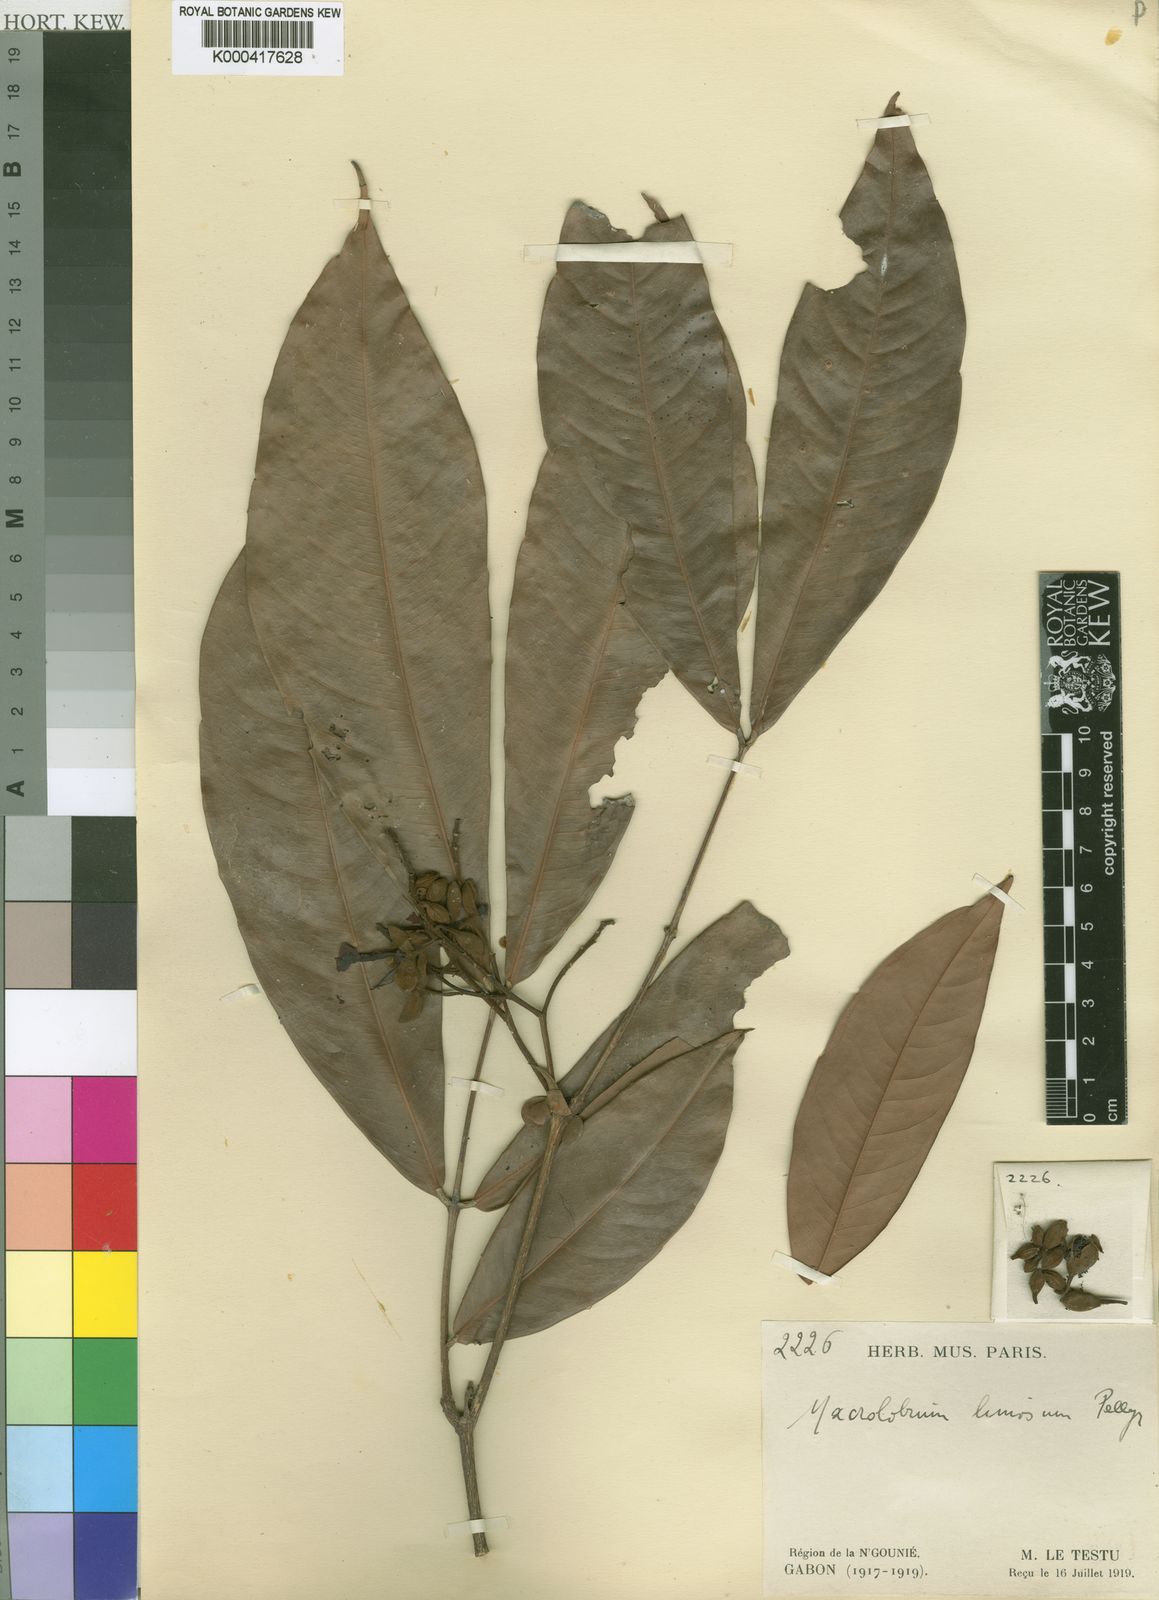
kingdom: Plantae
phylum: Tracheophyta
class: Magnoliopsida
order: Fabales
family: Fabaceae
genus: Gilbertiodendron
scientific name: Gilbertiodendron
